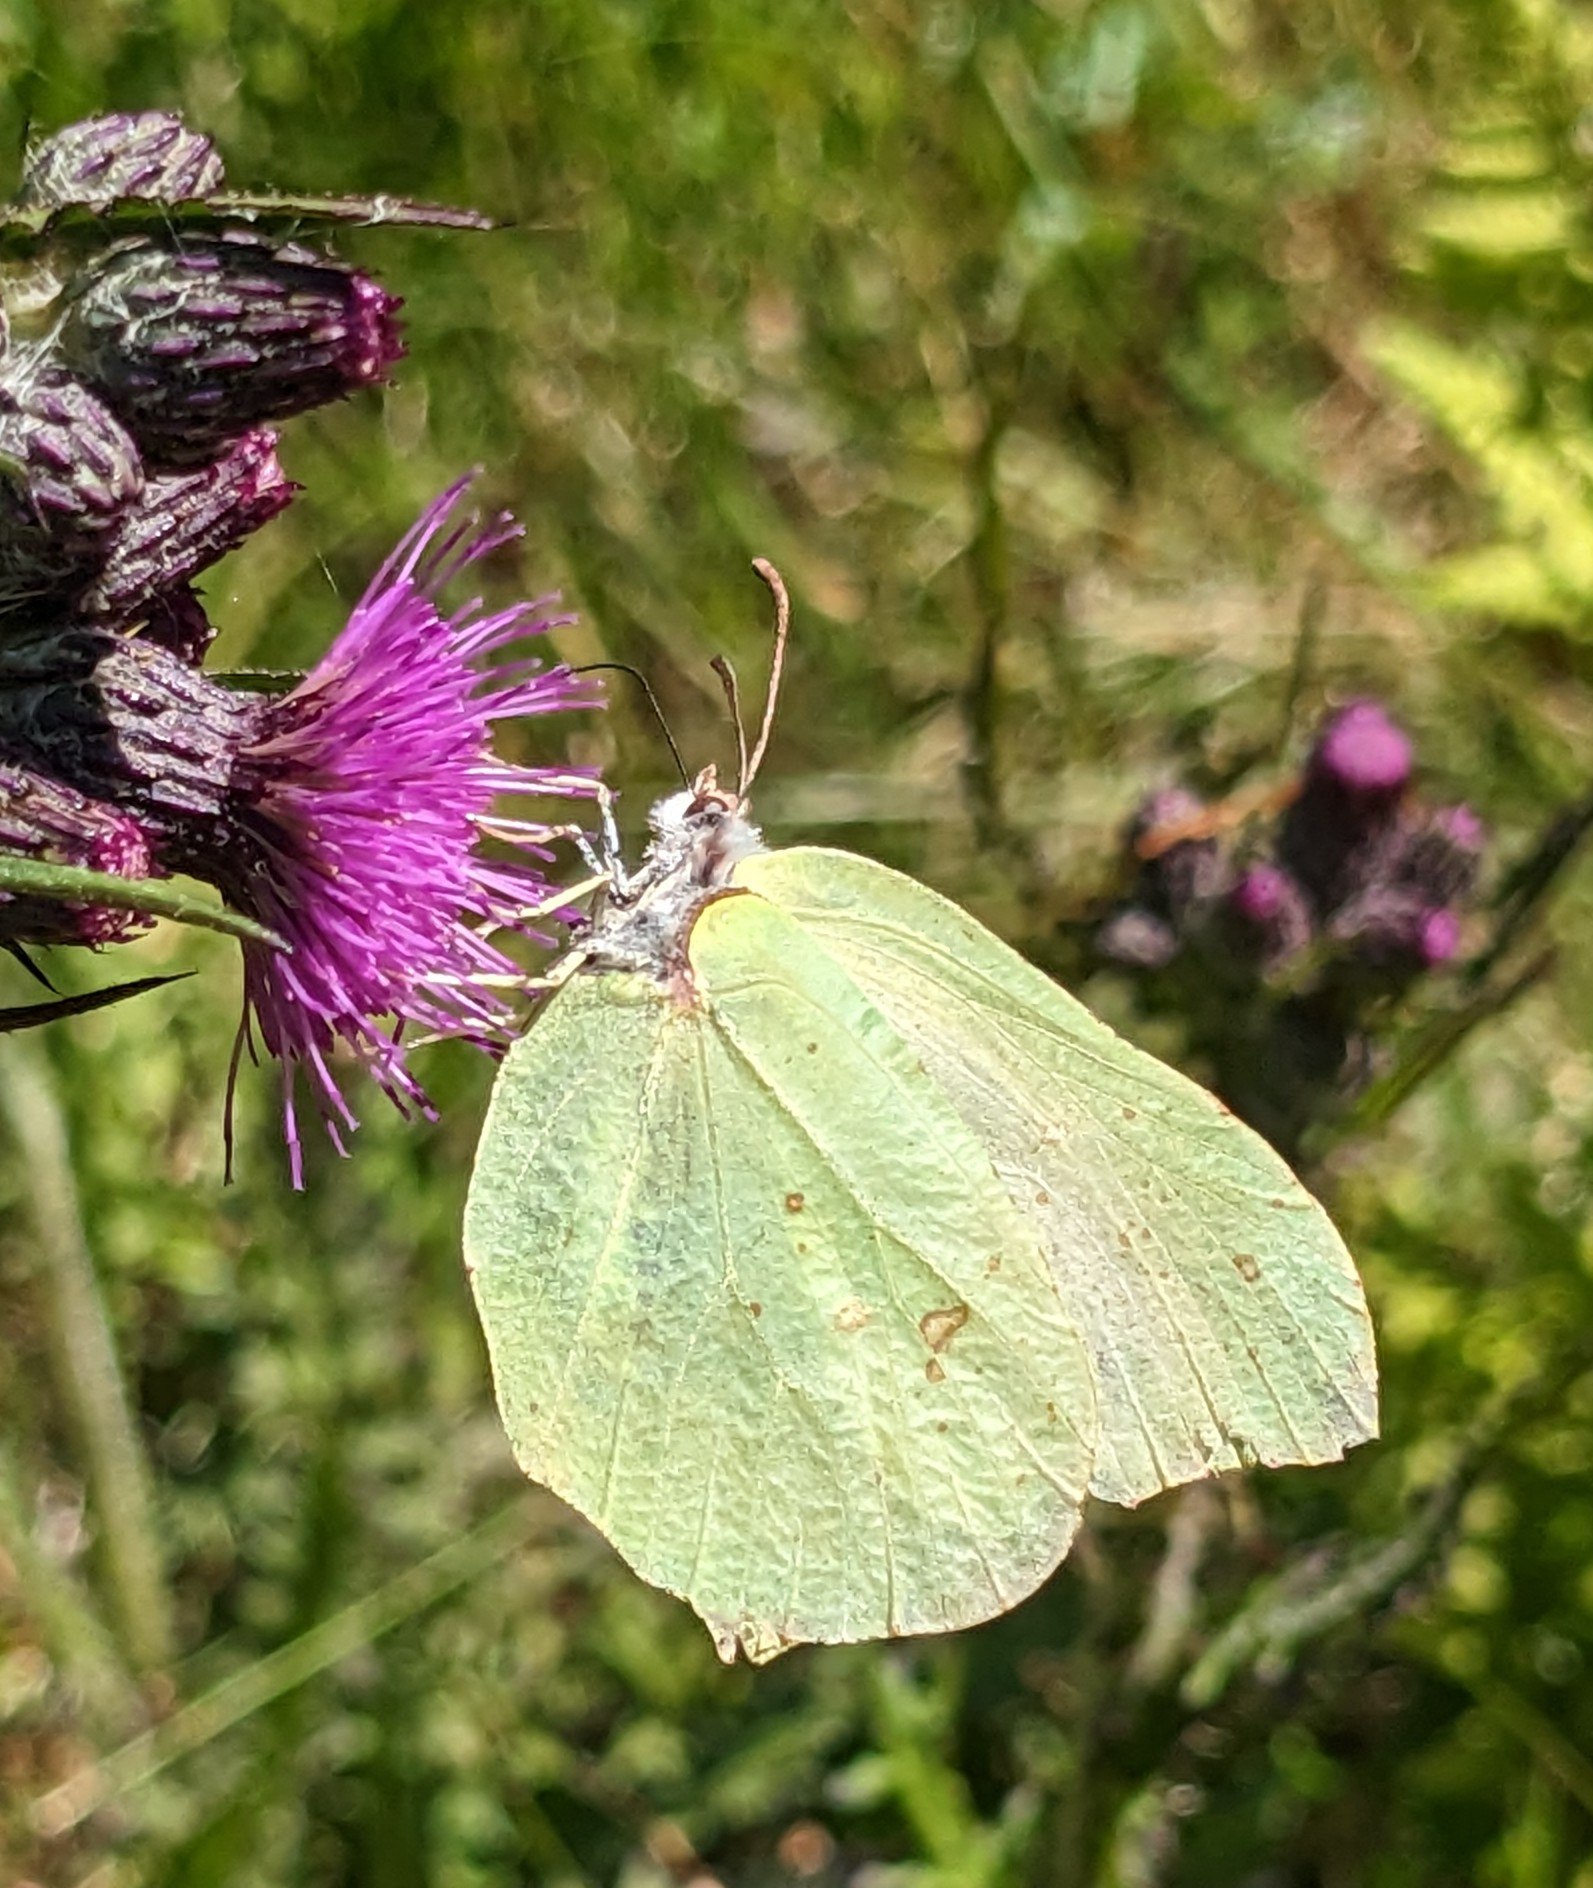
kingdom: Animalia
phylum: Arthropoda
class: Insecta
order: Lepidoptera
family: Pieridae
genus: Gonepteryx
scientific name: Gonepteryx rhamni
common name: Citronsommerfugl
